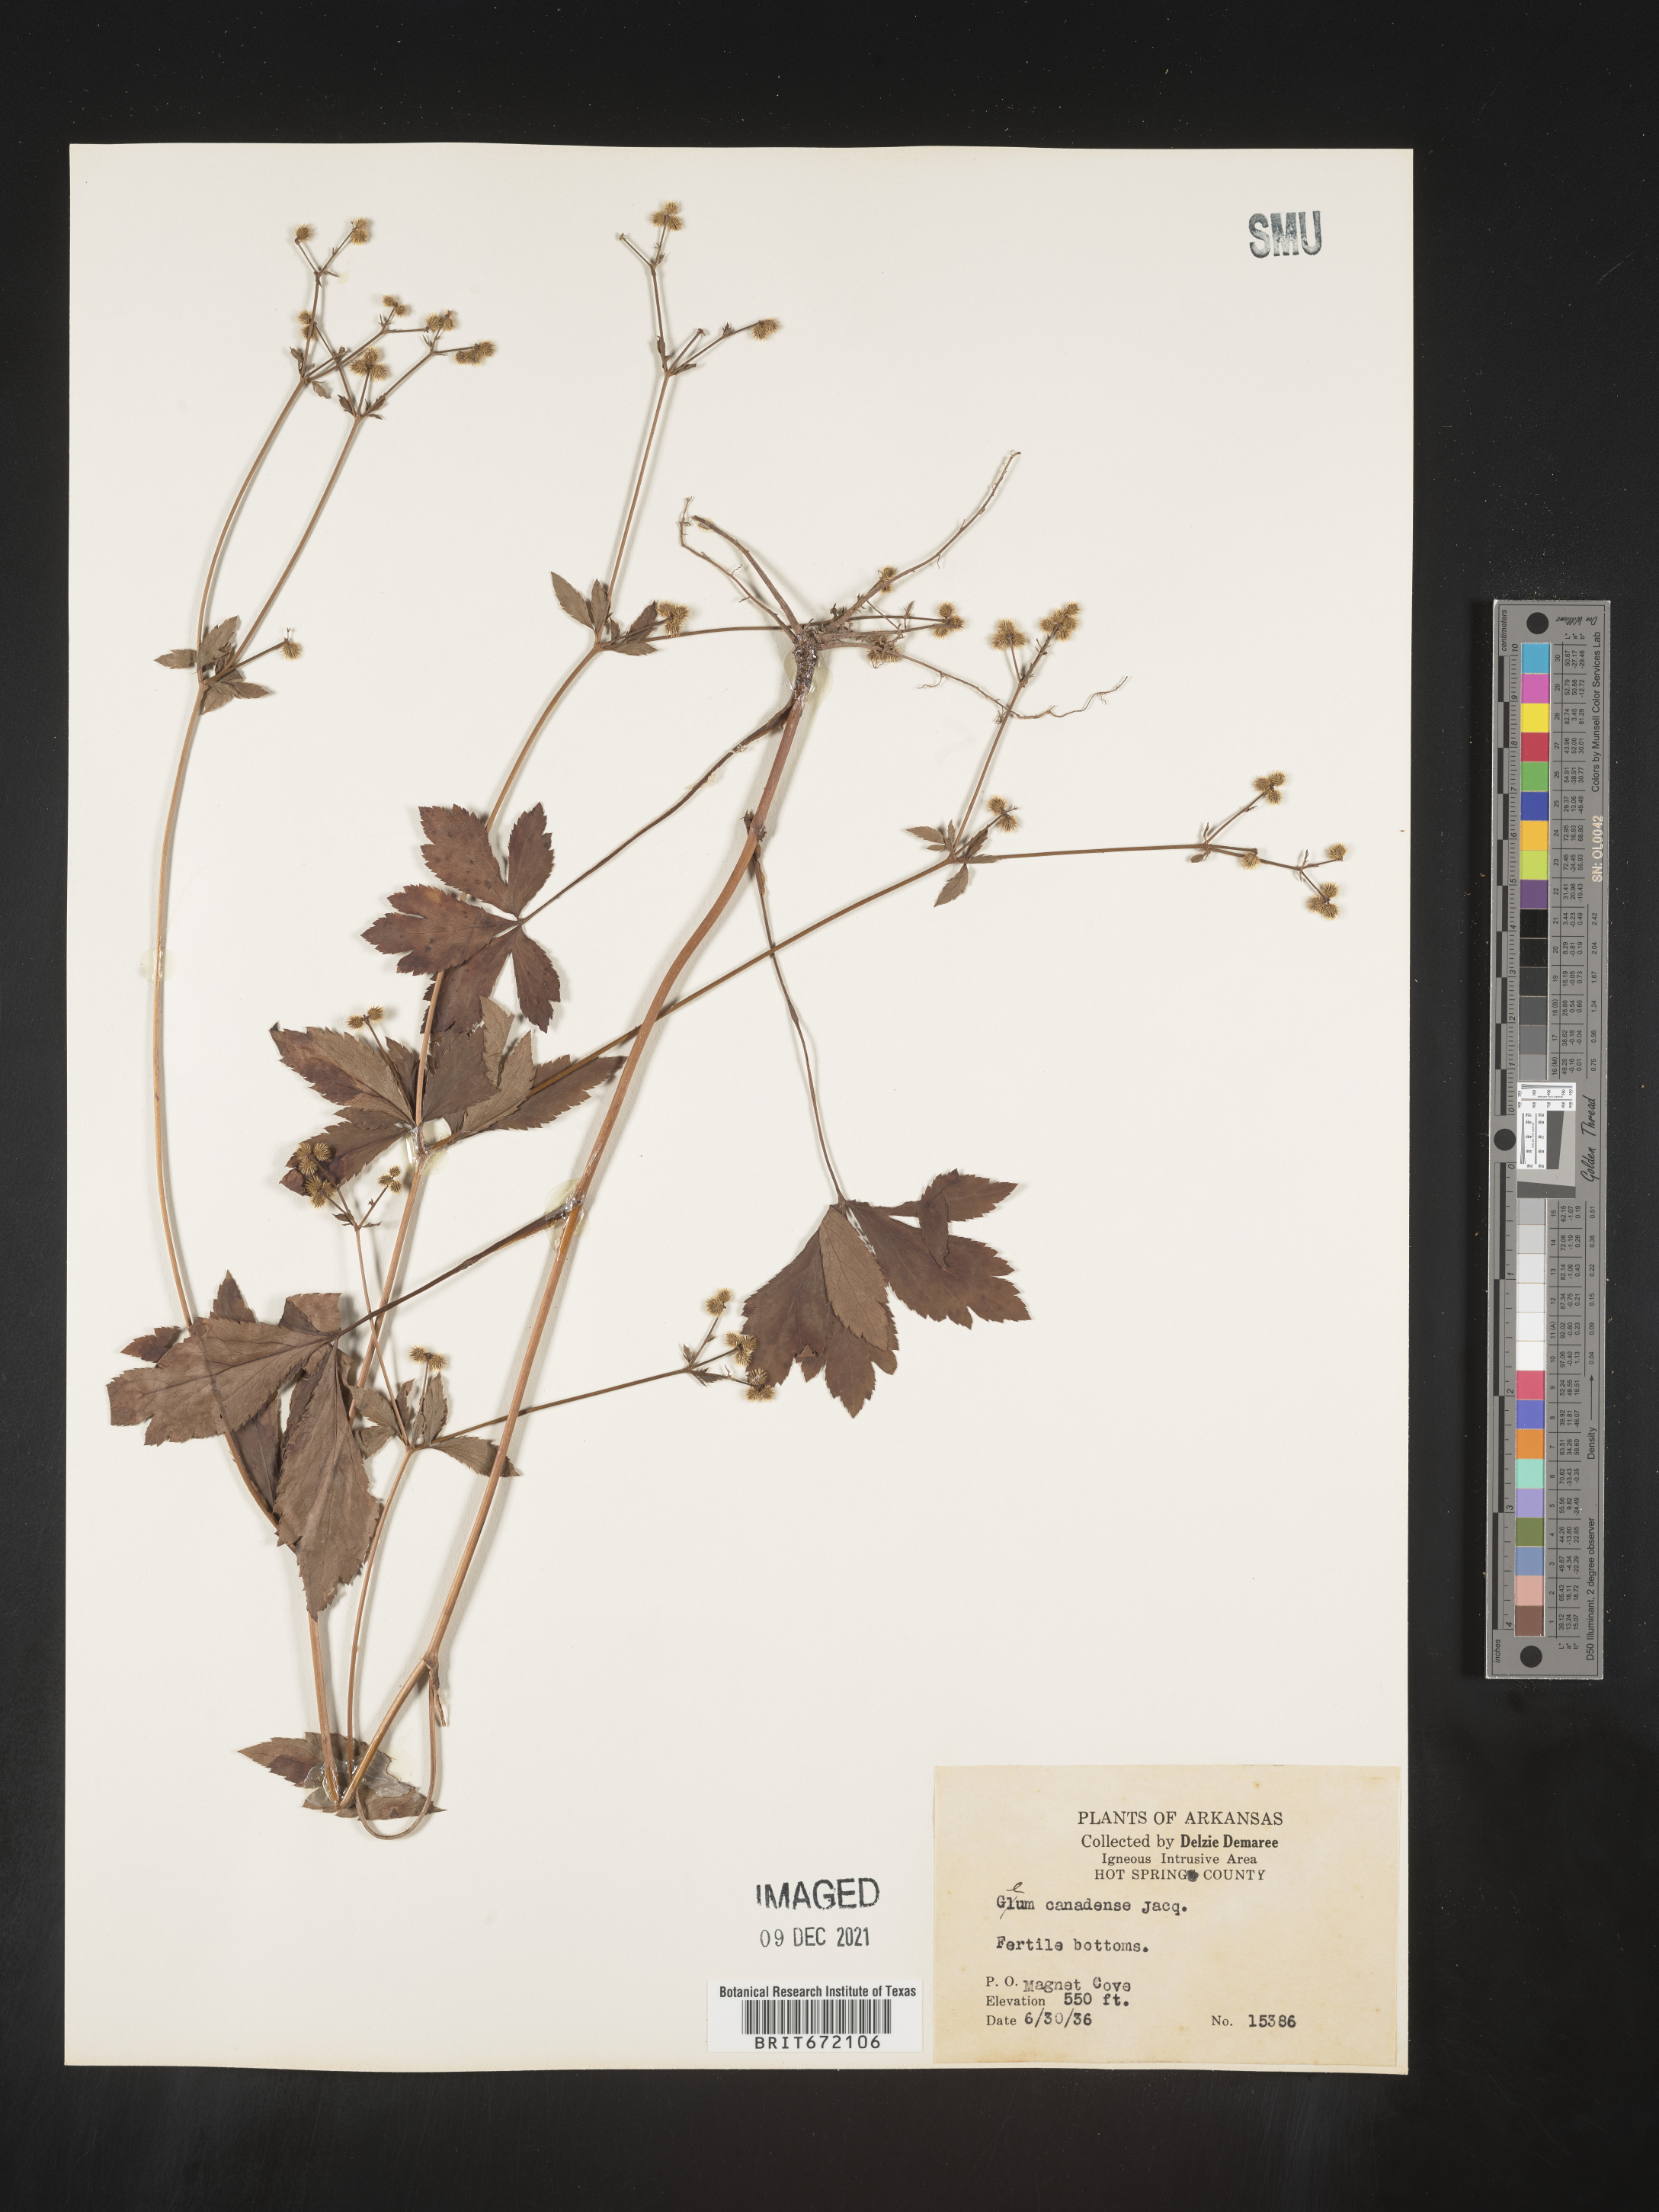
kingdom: Plantae
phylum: Tracheophyta
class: Magnoliopsida
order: Apiales
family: Apiaceae
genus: Sanicula
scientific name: Sanicula canadensis
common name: Canada sanicle
